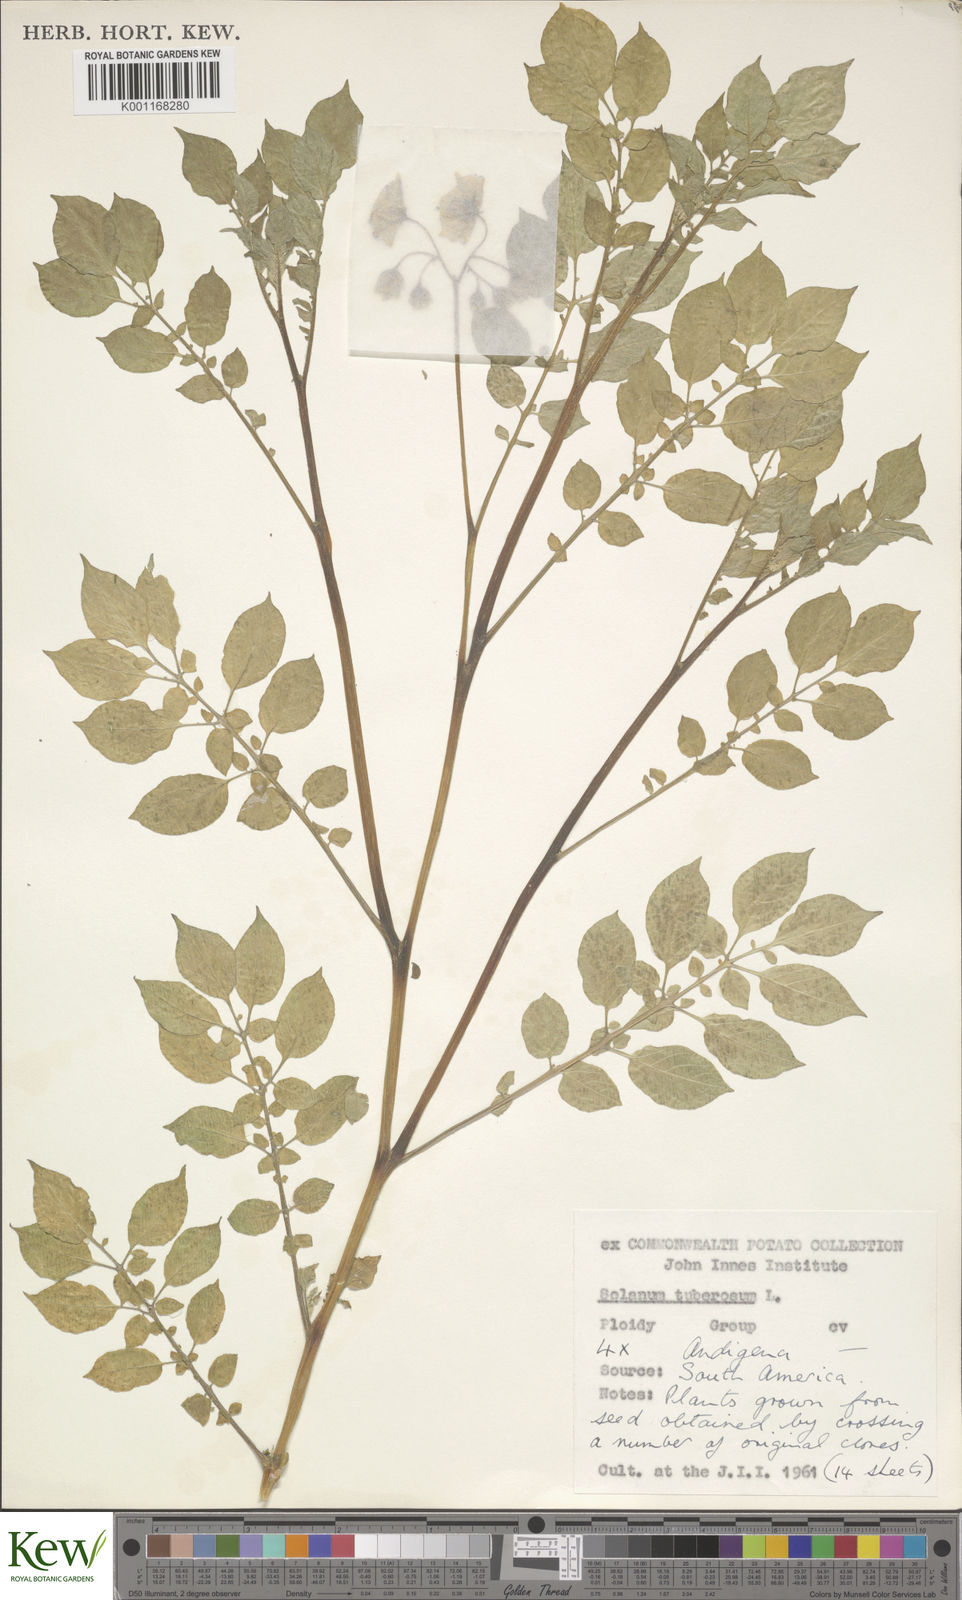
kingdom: Plantae
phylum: Tracheophyta
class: Magnoliopsida
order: Solanales
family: Solanaceae
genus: Solanum
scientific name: Solanum tuberosum
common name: Potato
